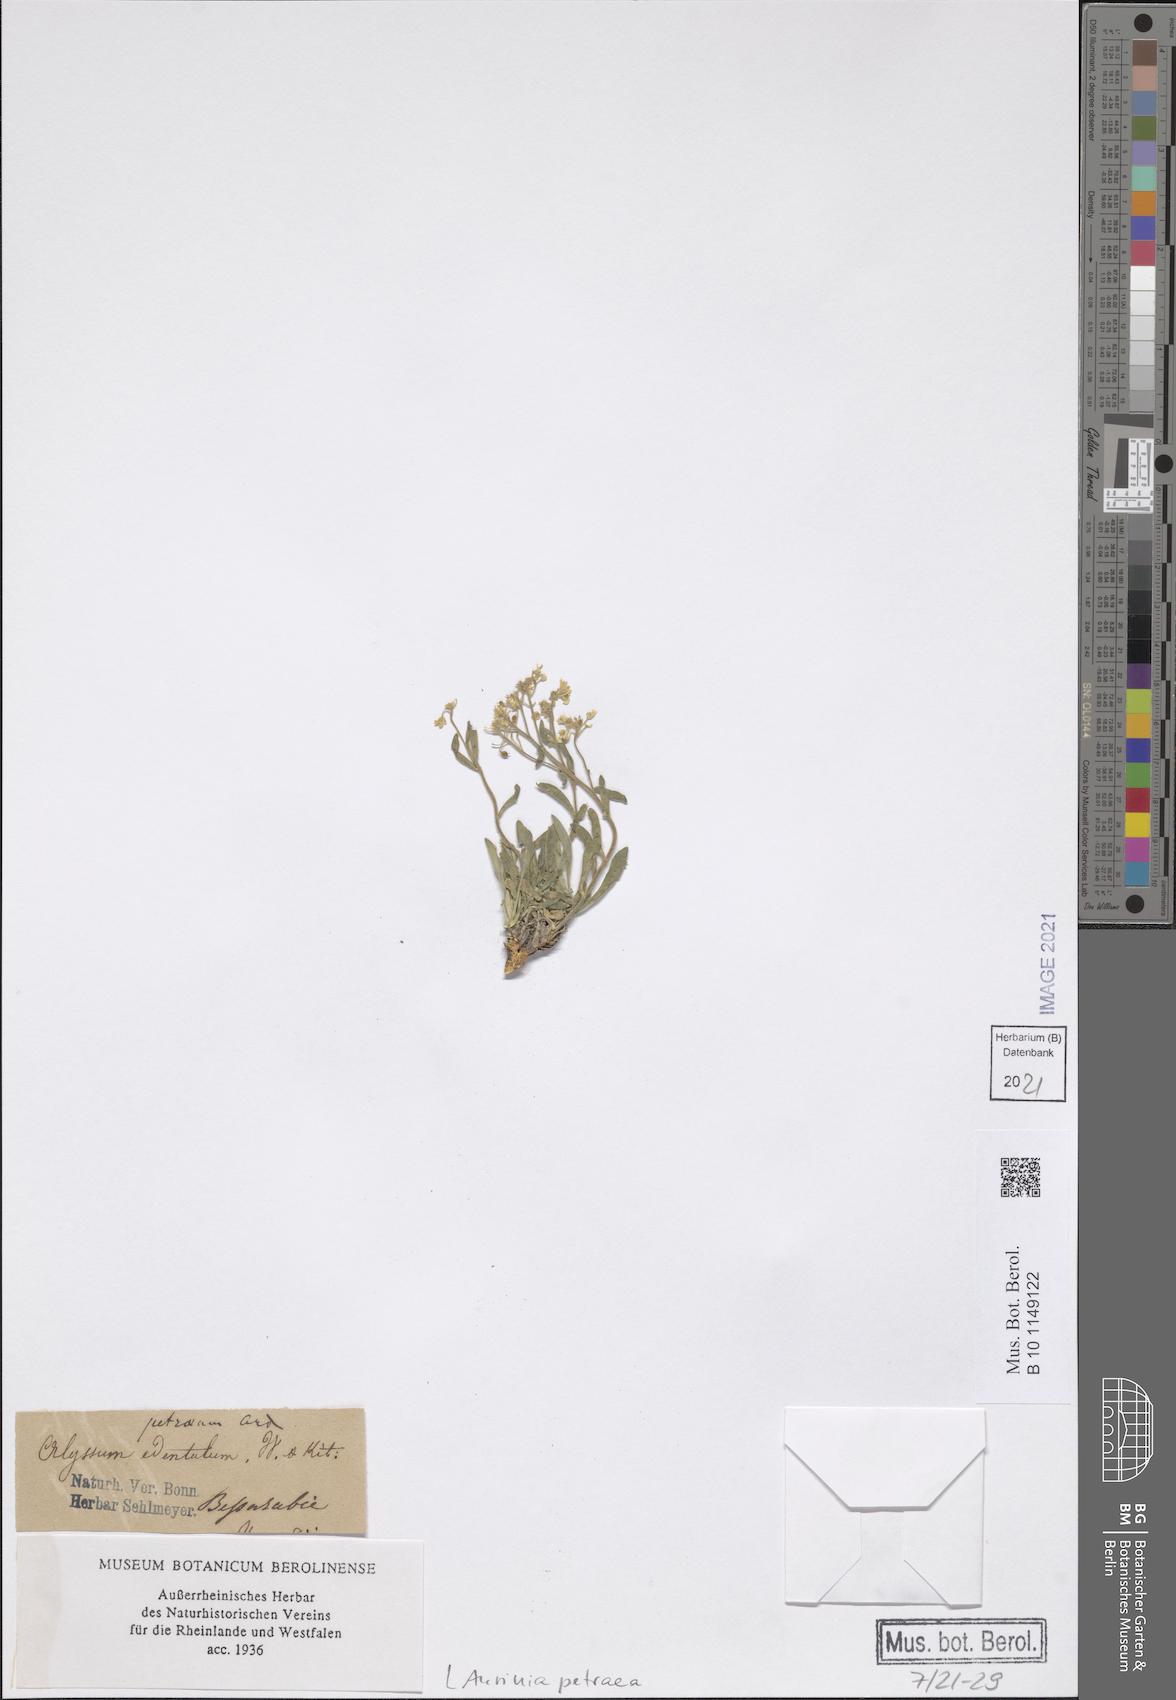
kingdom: Plantae
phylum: Tracheophyta
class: Magnoliopsida
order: Brassicales
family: Brassicaceae
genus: Aurinia
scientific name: Aurinia petraea
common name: Goldentuft
